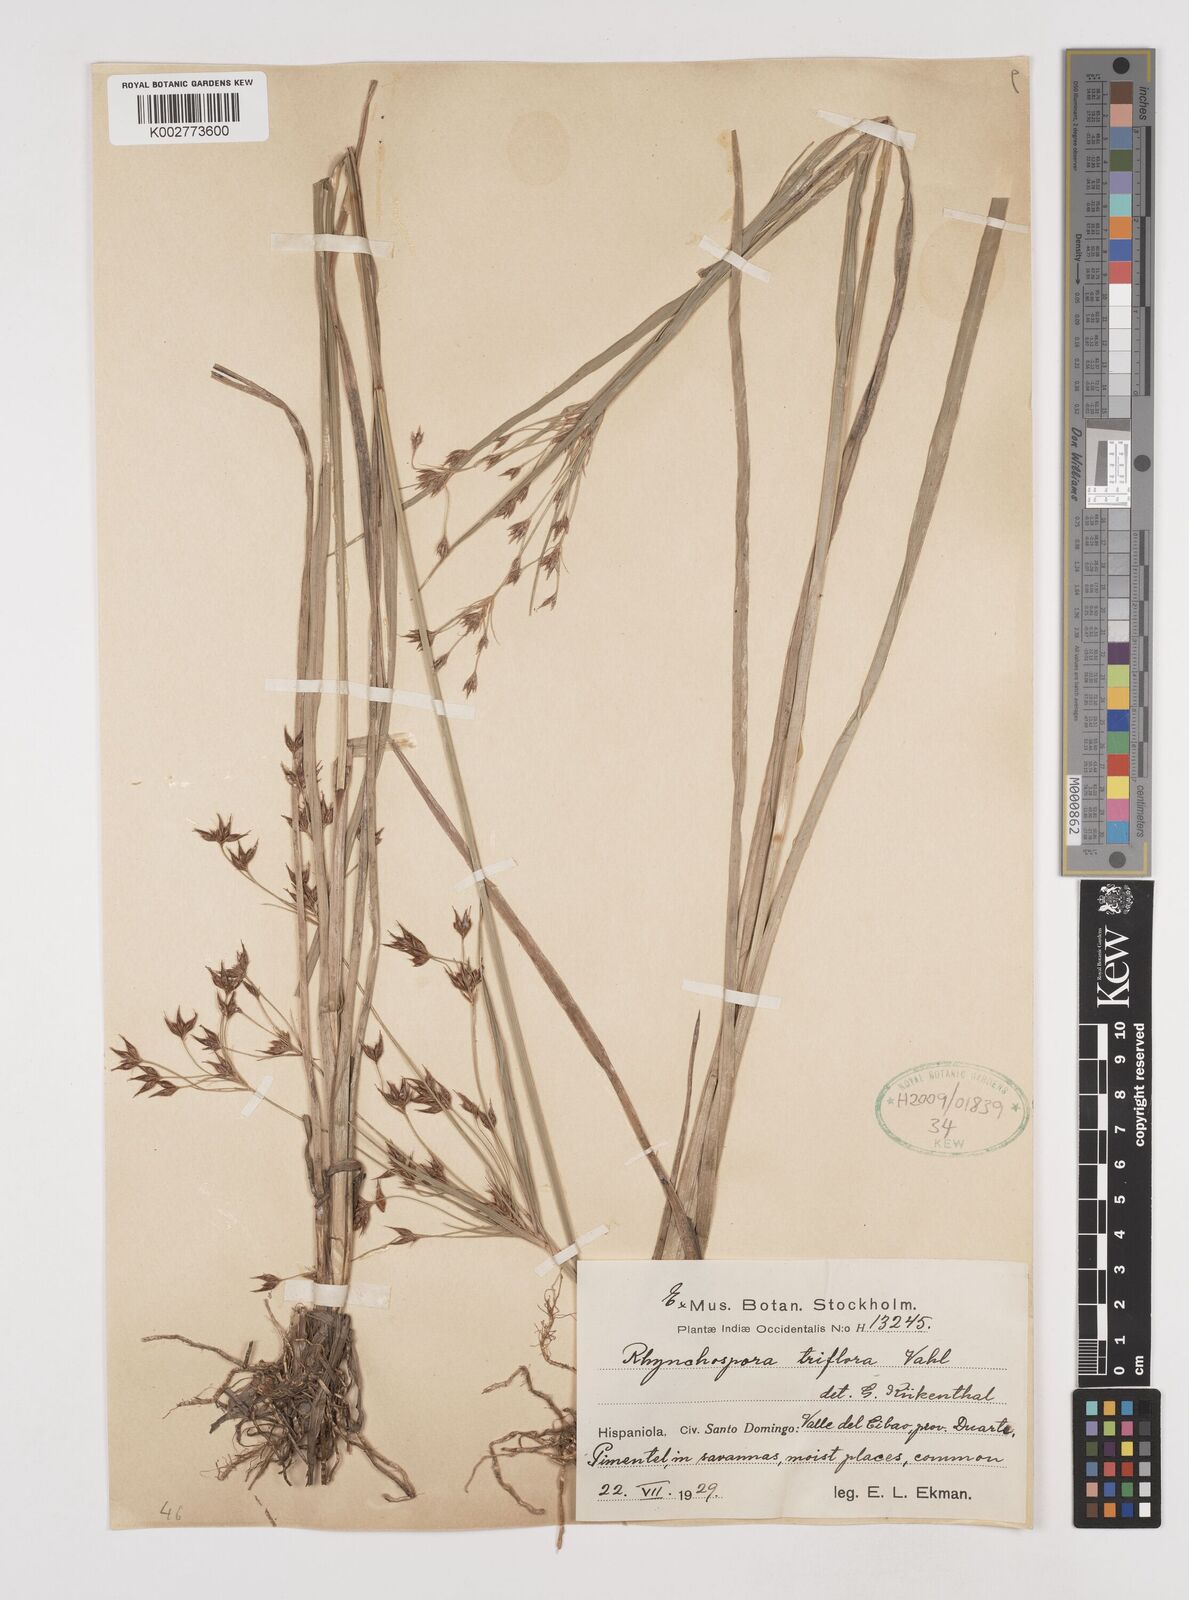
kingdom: Plantae
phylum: Tracheophyta
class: Liliopsida
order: Poales
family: Cyperaceae
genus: Rhynchospora
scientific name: Rhynchospora triflora
